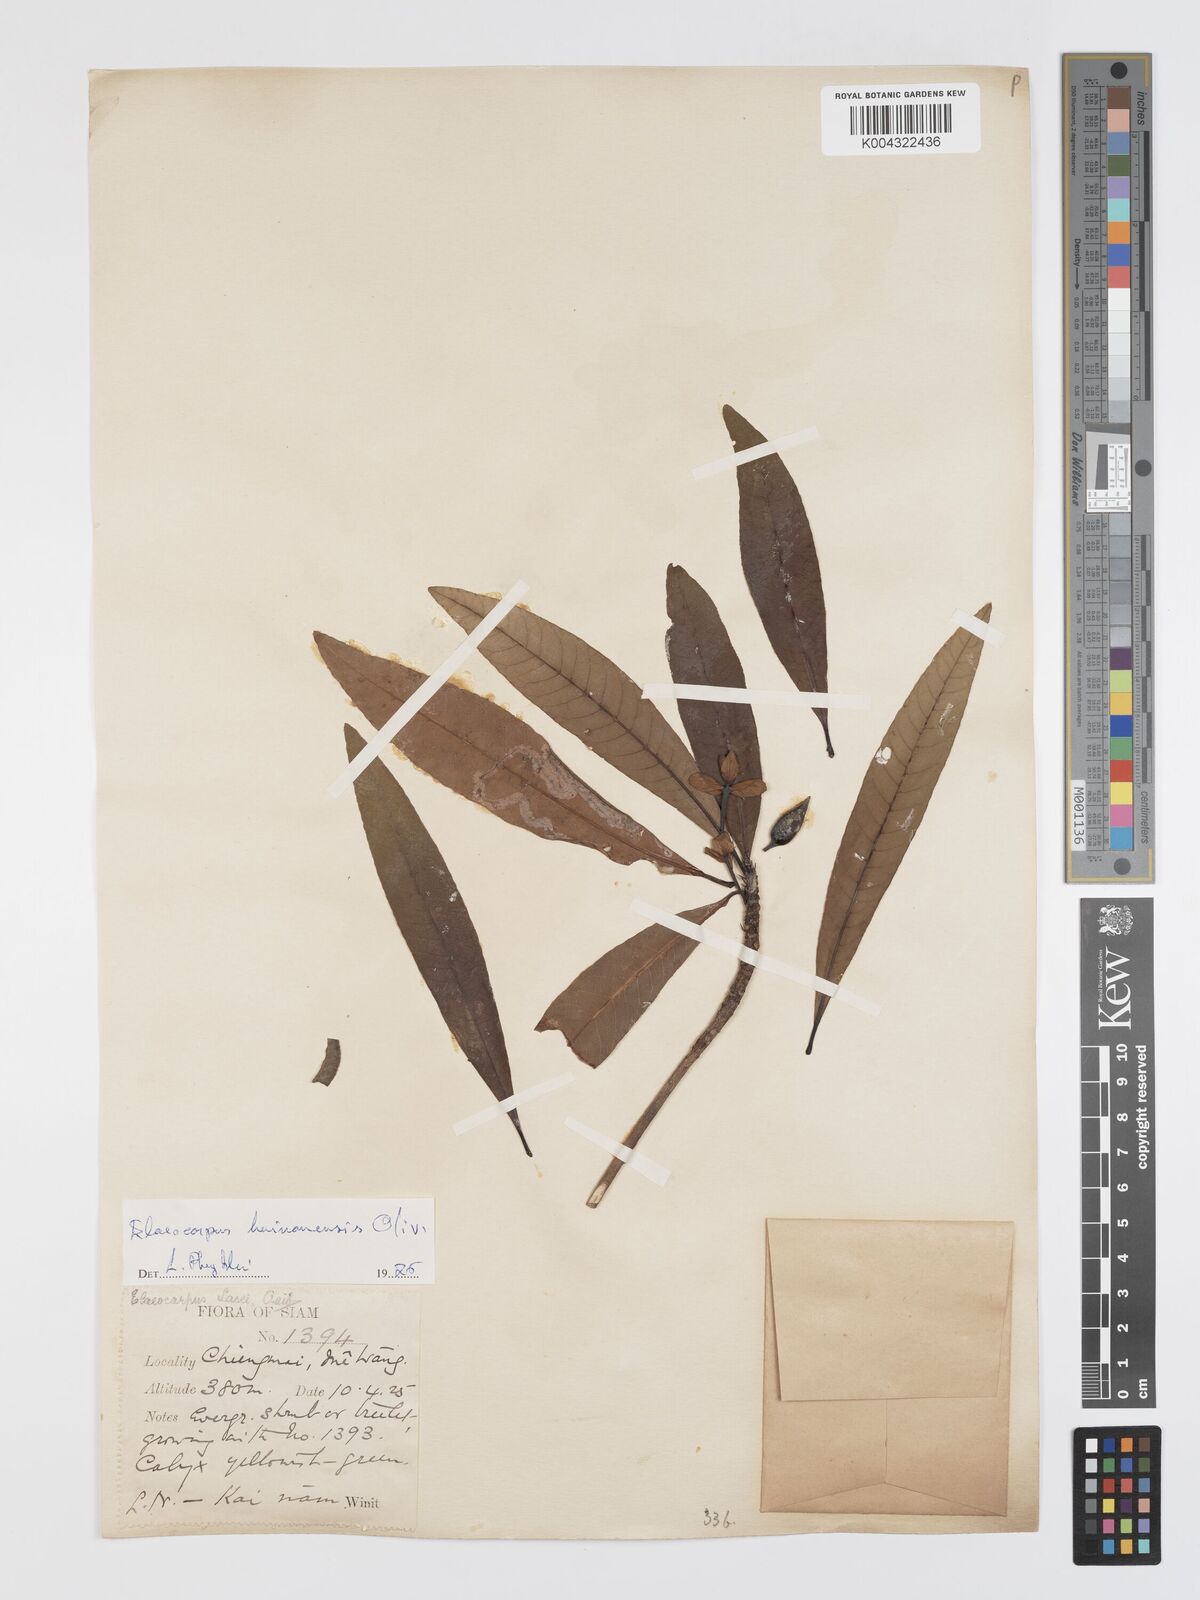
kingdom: Plantae
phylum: Tracheophyta
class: Magnoliopsida
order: Oxalidales
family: Elaeocarpaceae
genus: Elaeocarpus
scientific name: Elaeocarpus hainanensis
